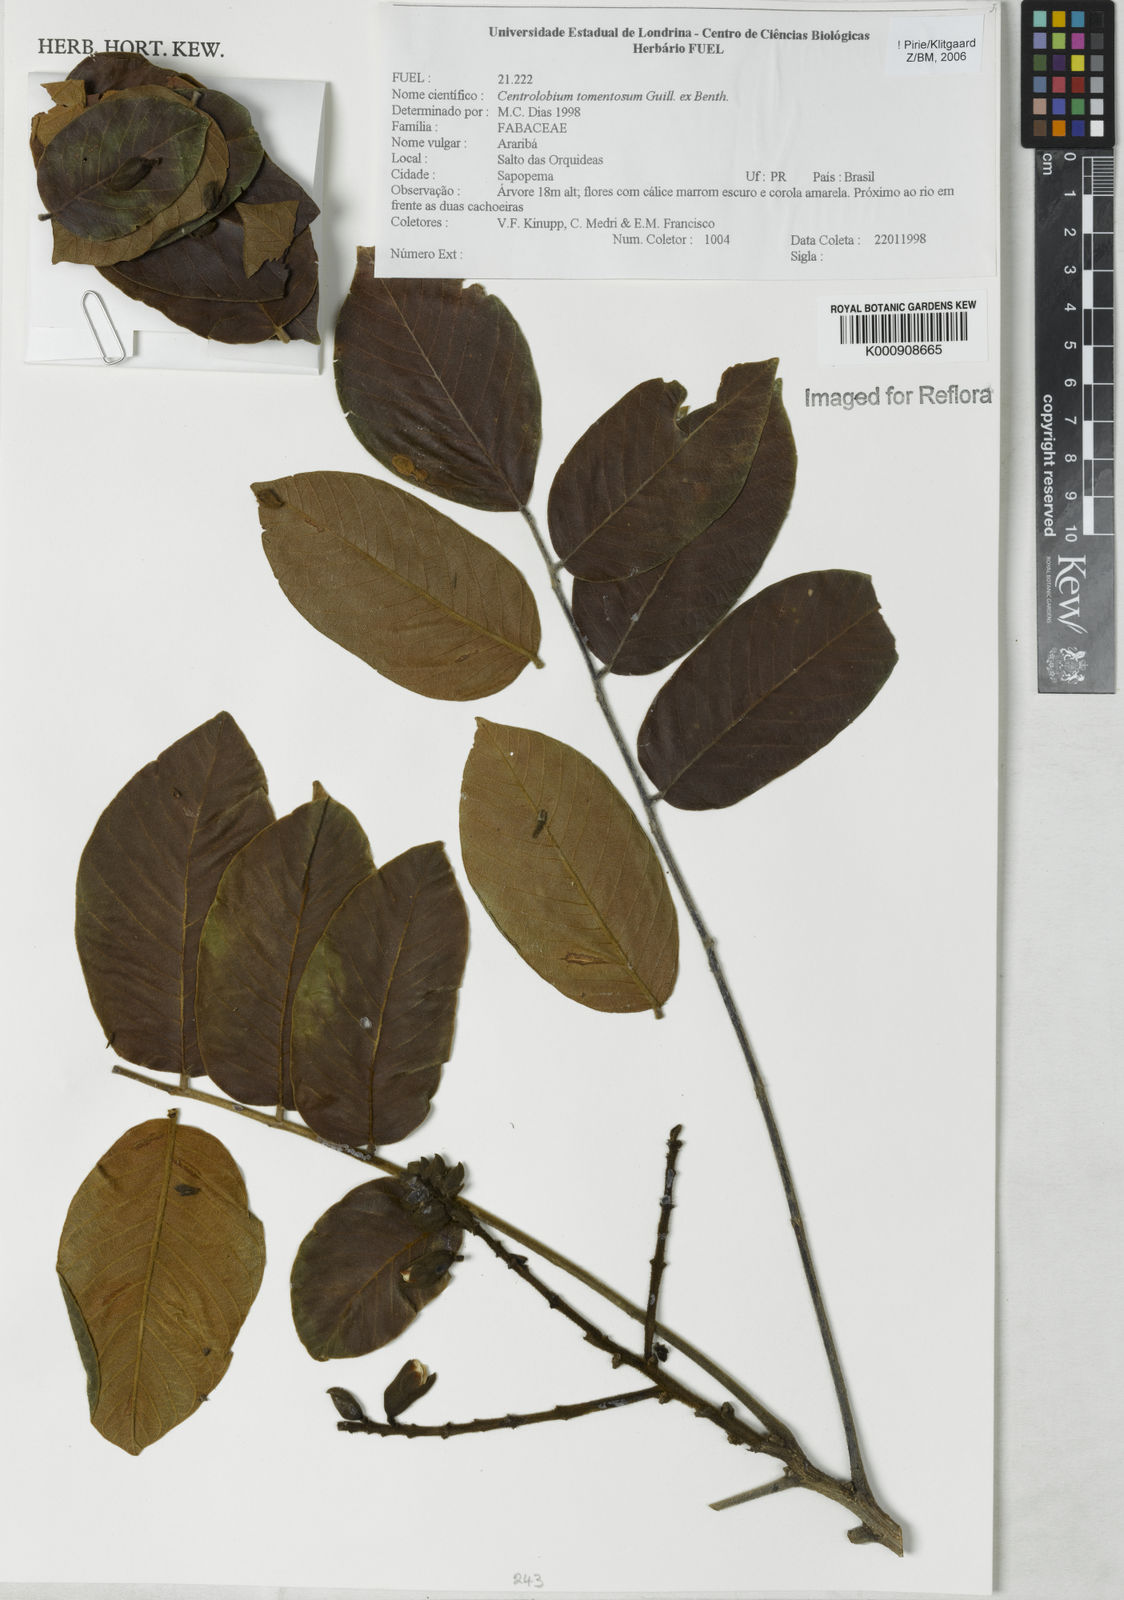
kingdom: Plantae
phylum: Tracheophyta
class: Magnoliopsida
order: Fabales
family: Fabaceae
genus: Centrolobium
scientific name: Centrolobium tomentosum
